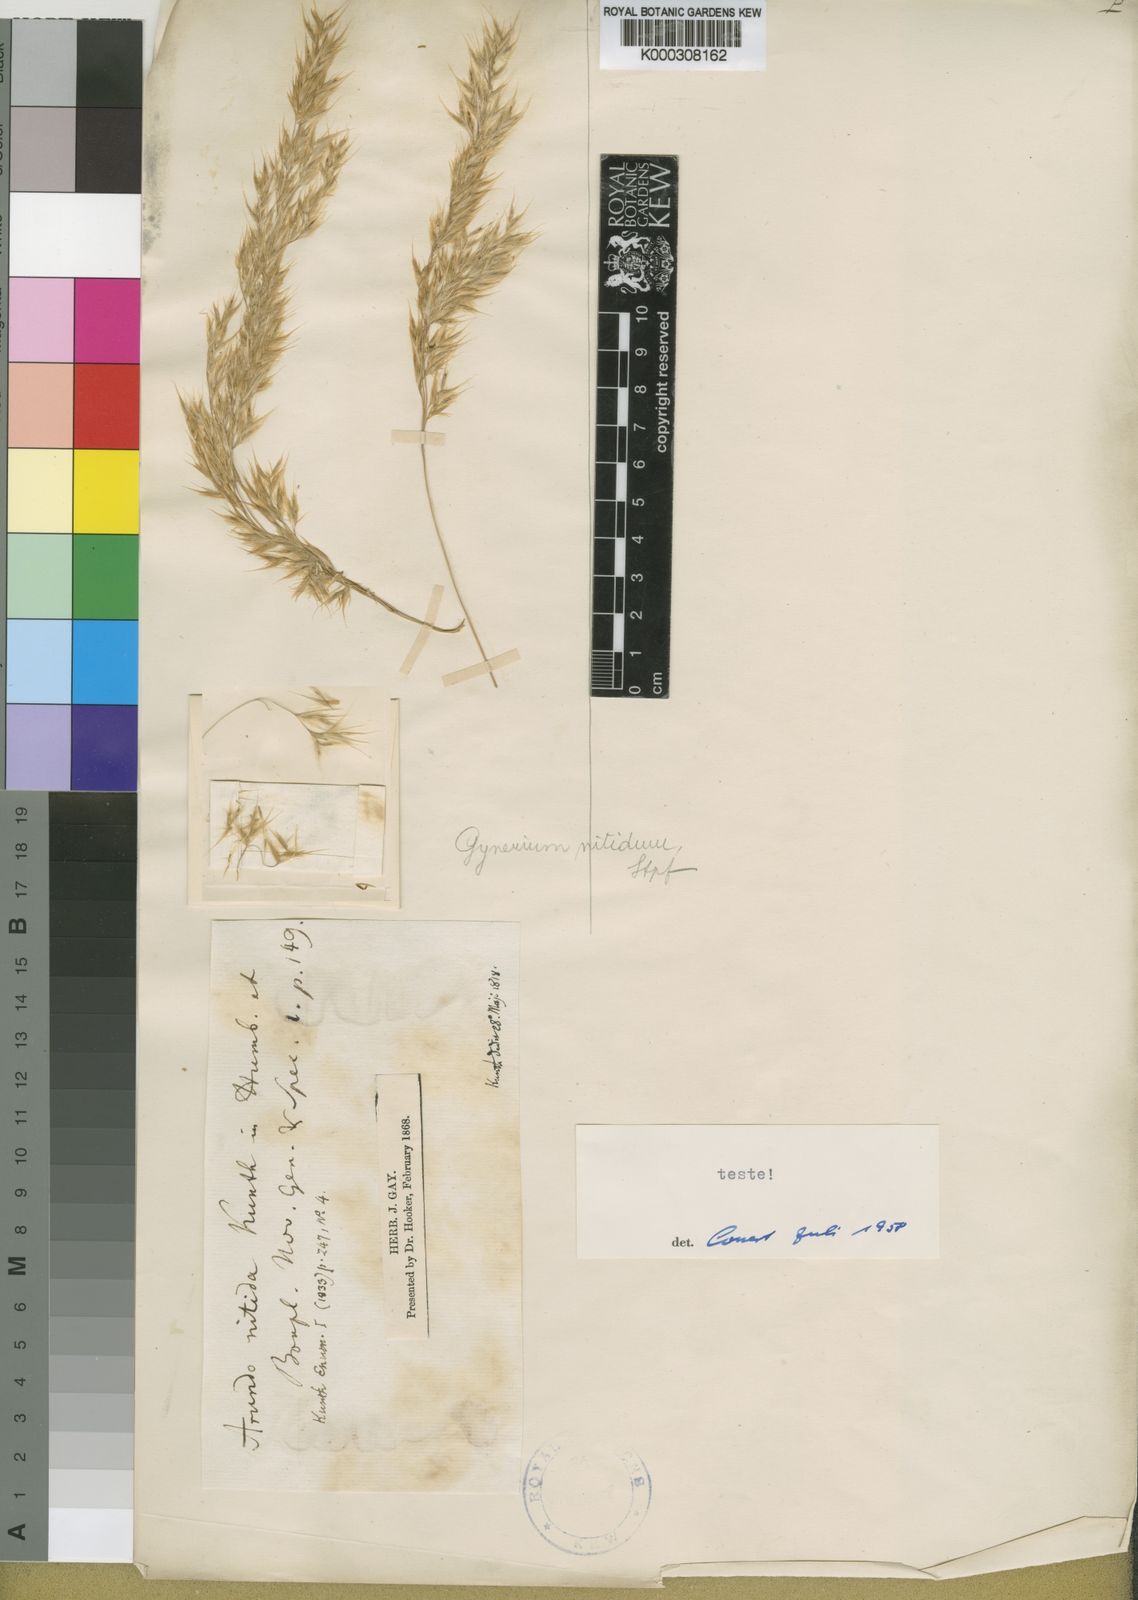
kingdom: Plantae
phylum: Tracheophyta
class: Liliopsida
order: Poales
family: Poaceae
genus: Cortaderia
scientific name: Cortaderia nitida
